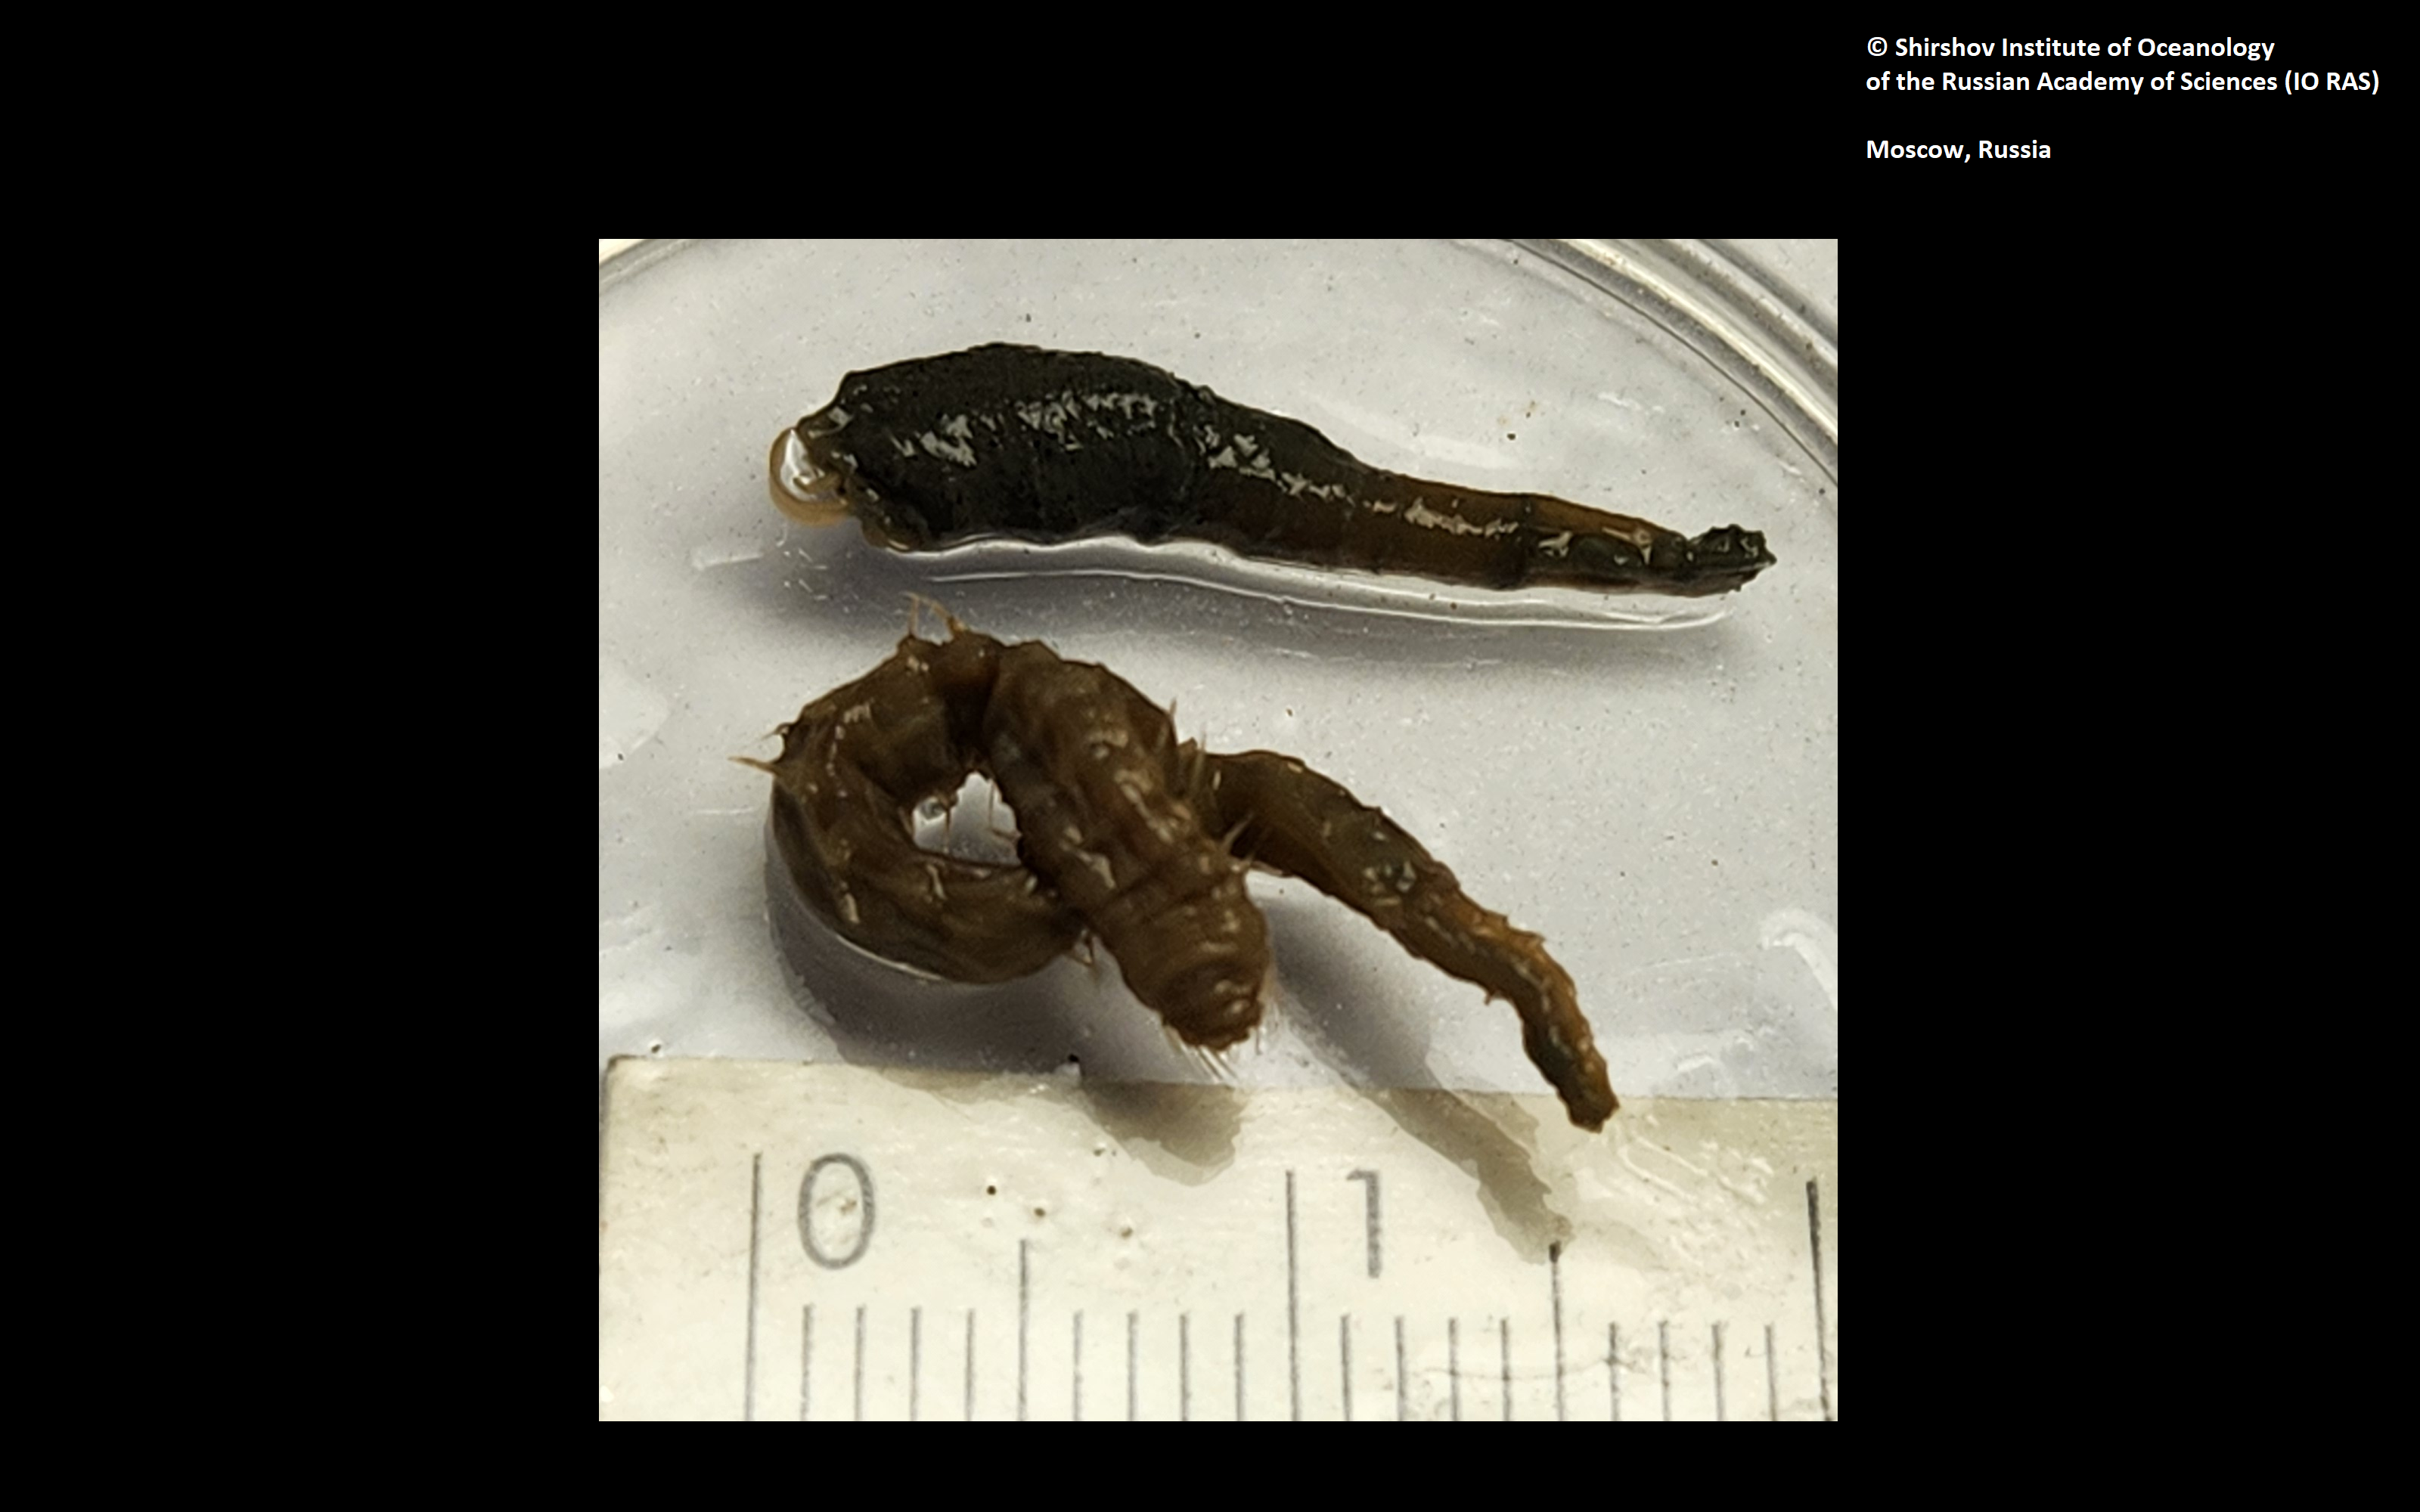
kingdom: Animalia
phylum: Annelida
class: Polychaeta
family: Ampharetidae
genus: Amphicteis
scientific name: Amphicteis bifolium
